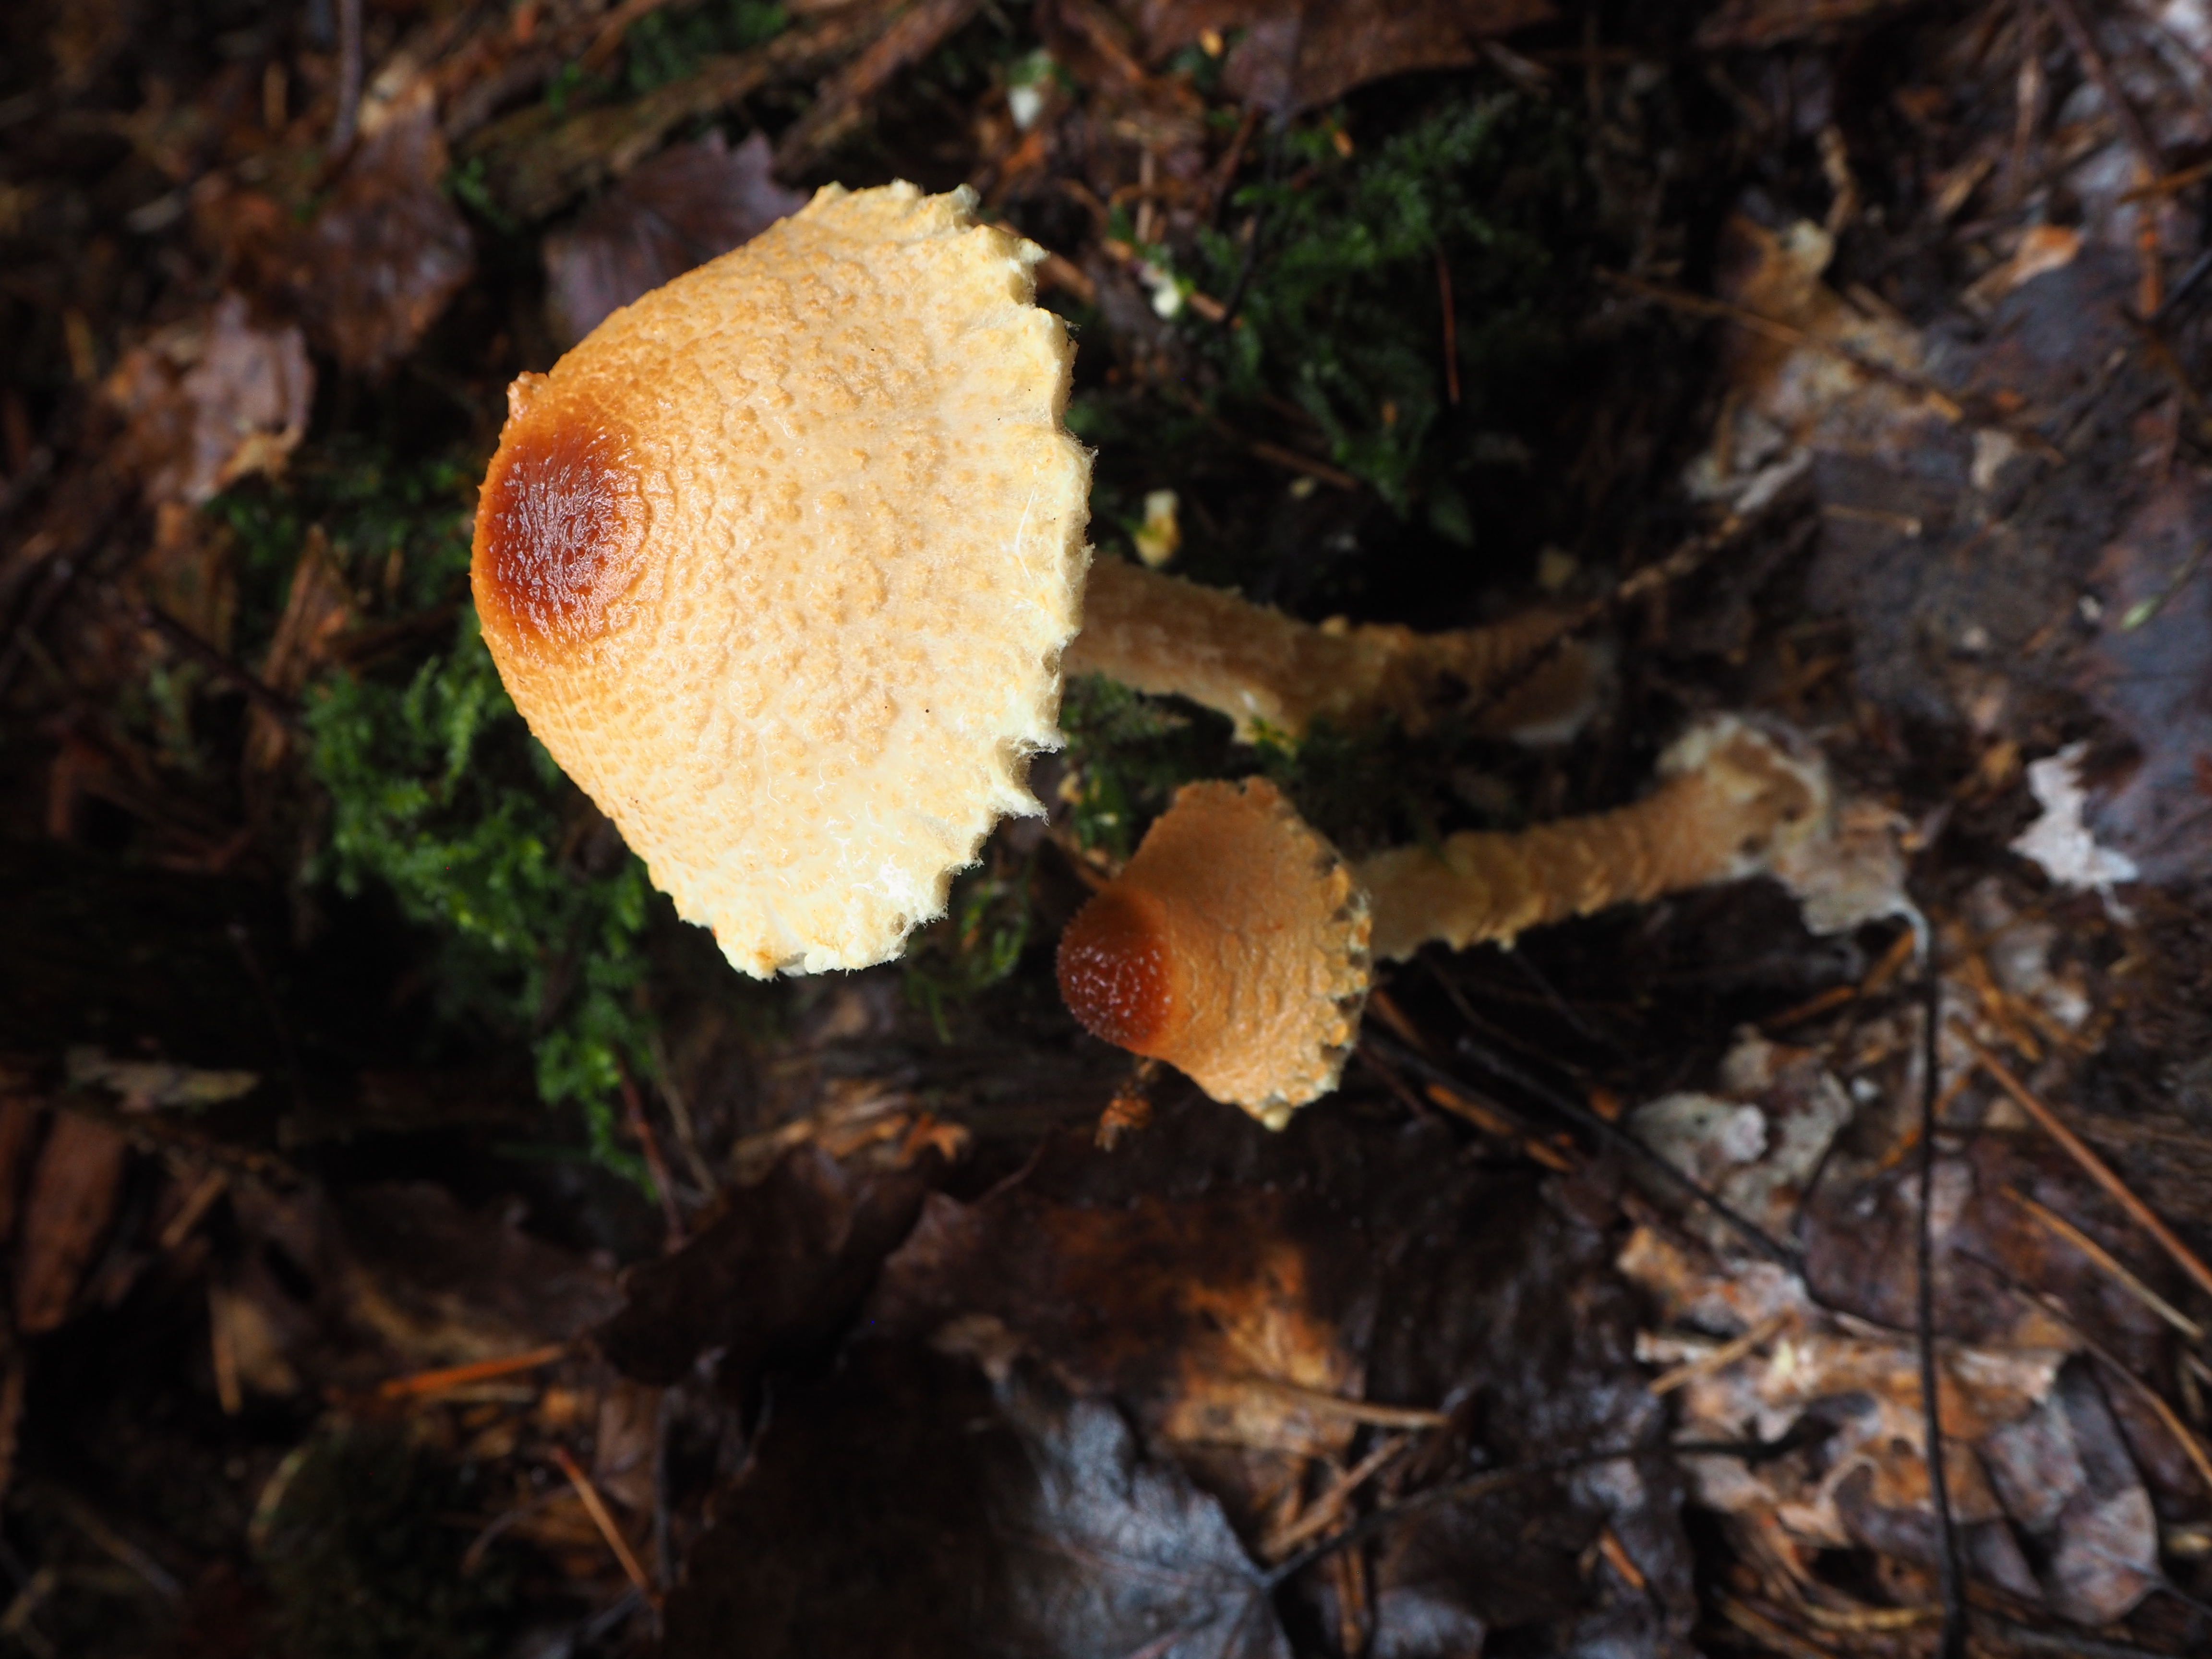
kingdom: Fungi
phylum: Basidiomycota
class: Agaricomycetes
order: Agaricales
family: Agaricaceae
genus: Lepiota
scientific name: Lepiota magnispora
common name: Yellowfoot dapperling
